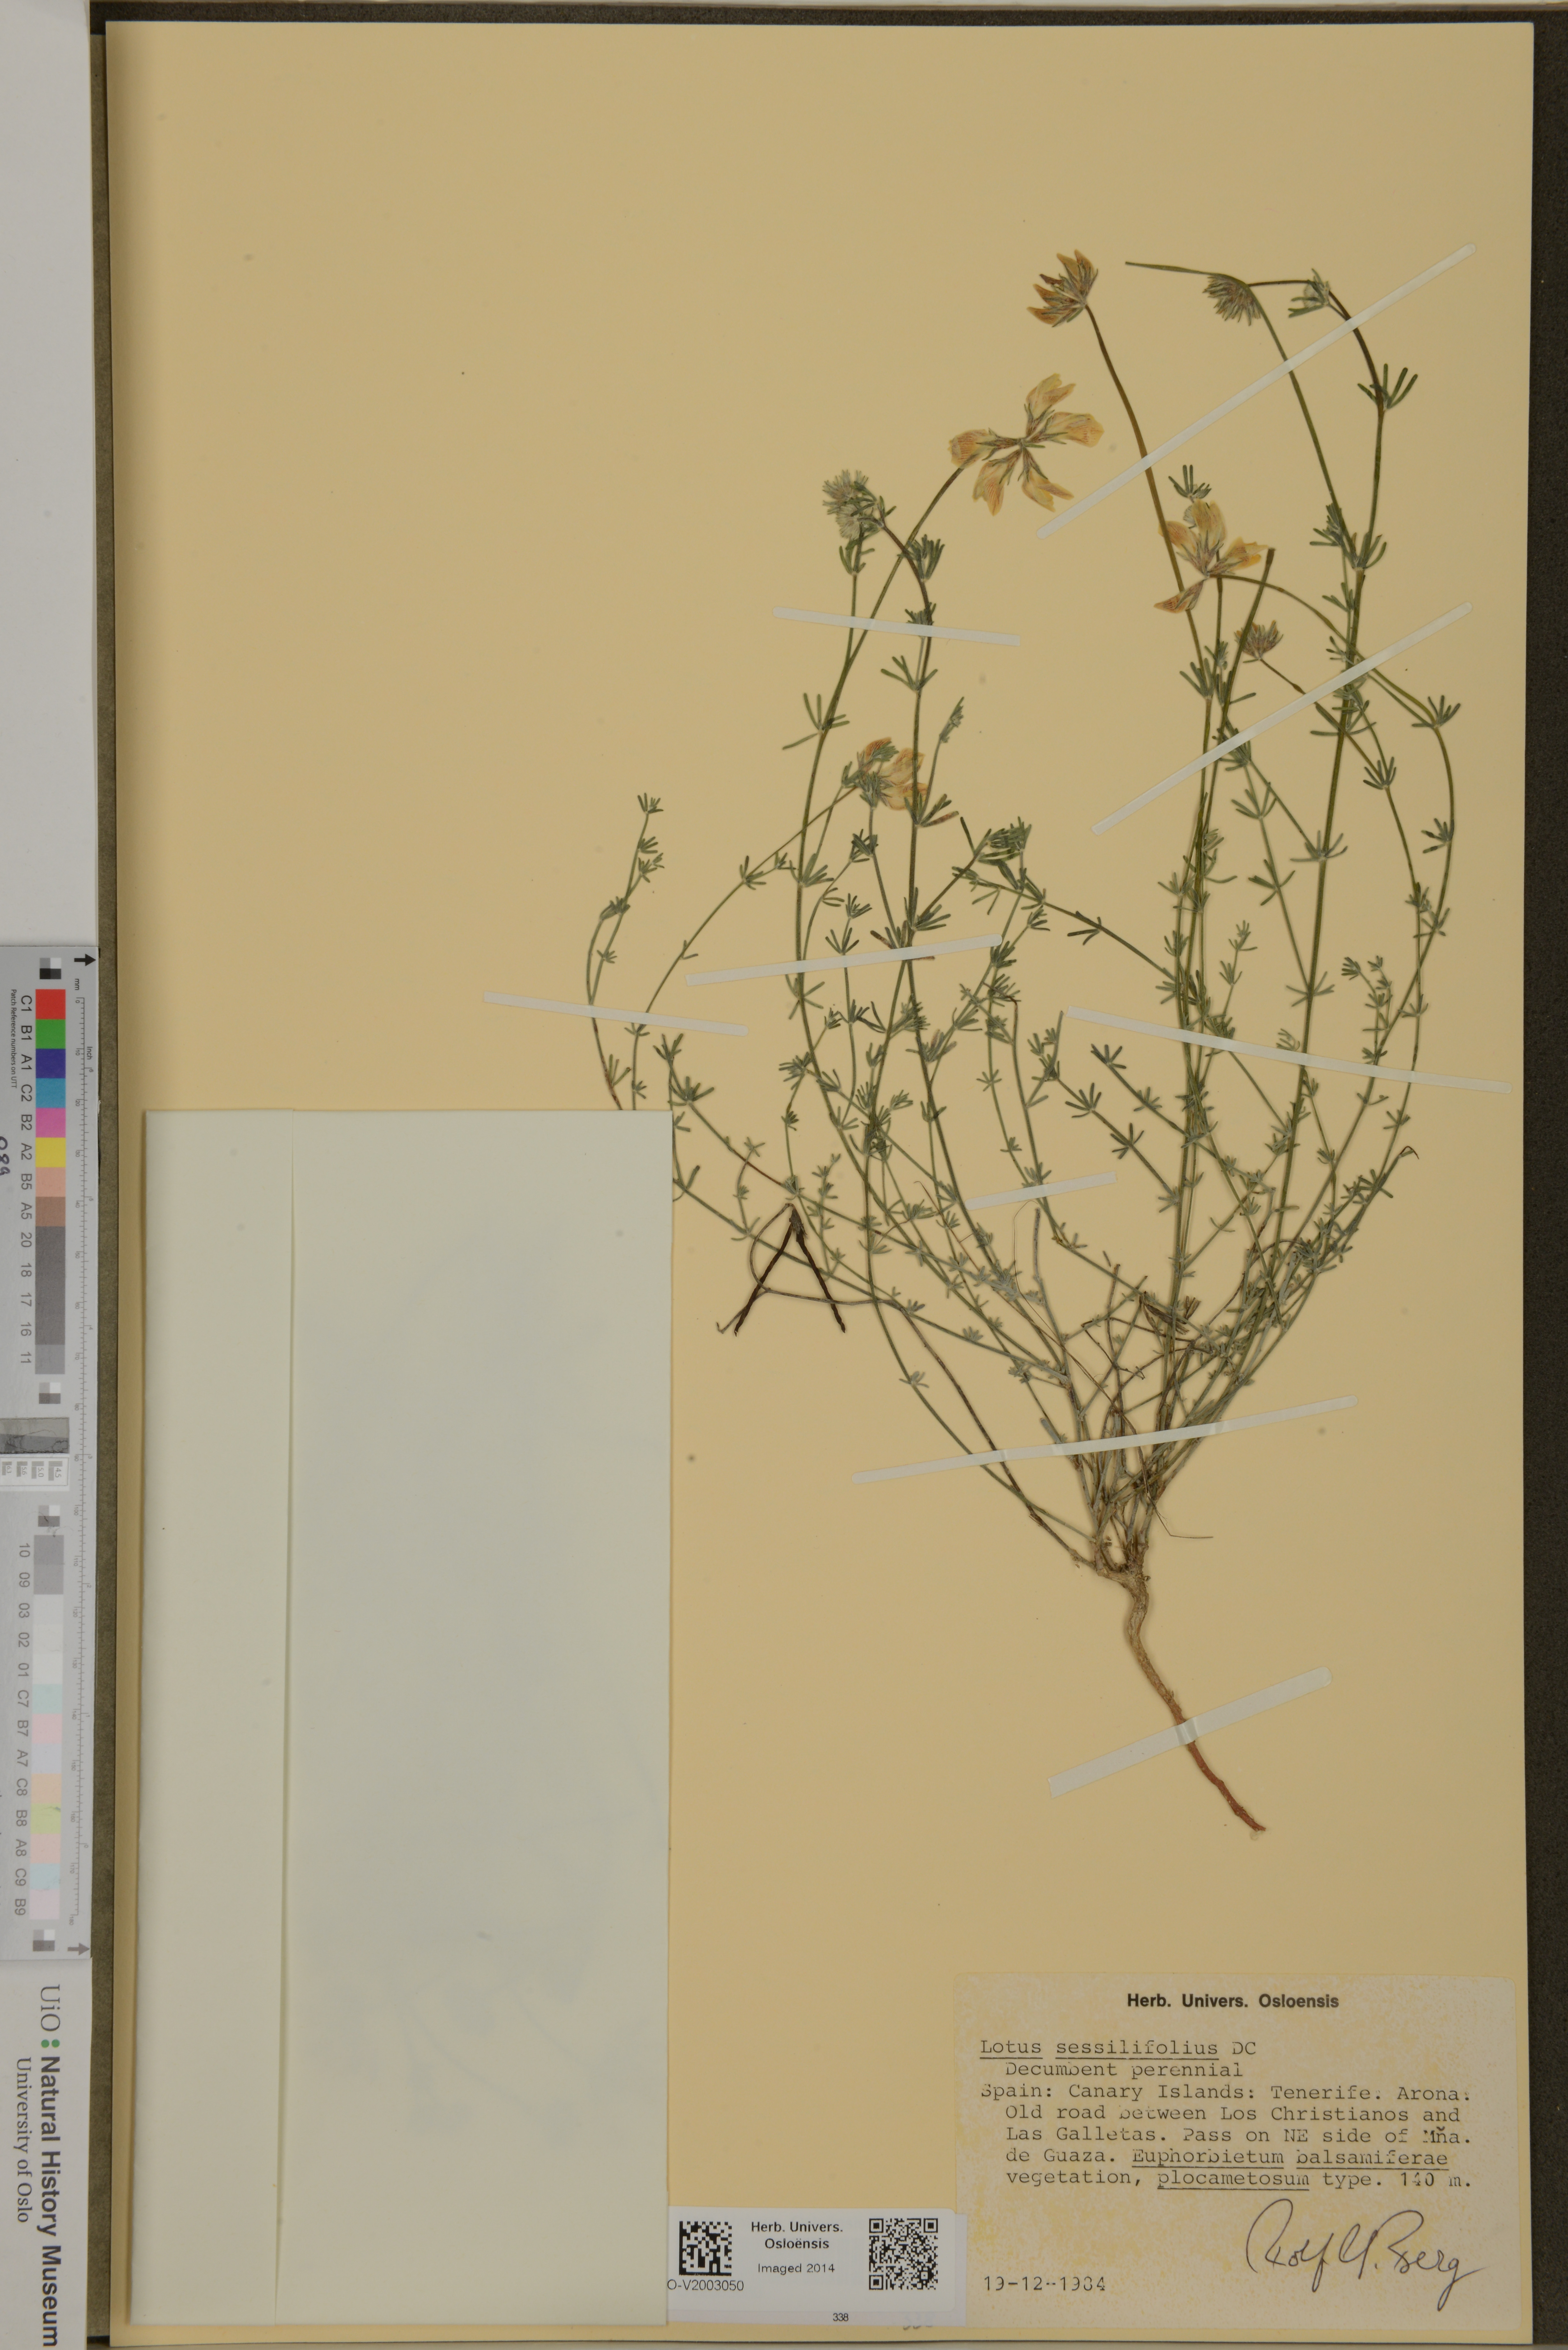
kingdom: Plantae
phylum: Tracheophyta
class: Magnoliopsida
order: Fabales
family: Fabaceae
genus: Lotus
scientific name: Lotus sessilifolius
